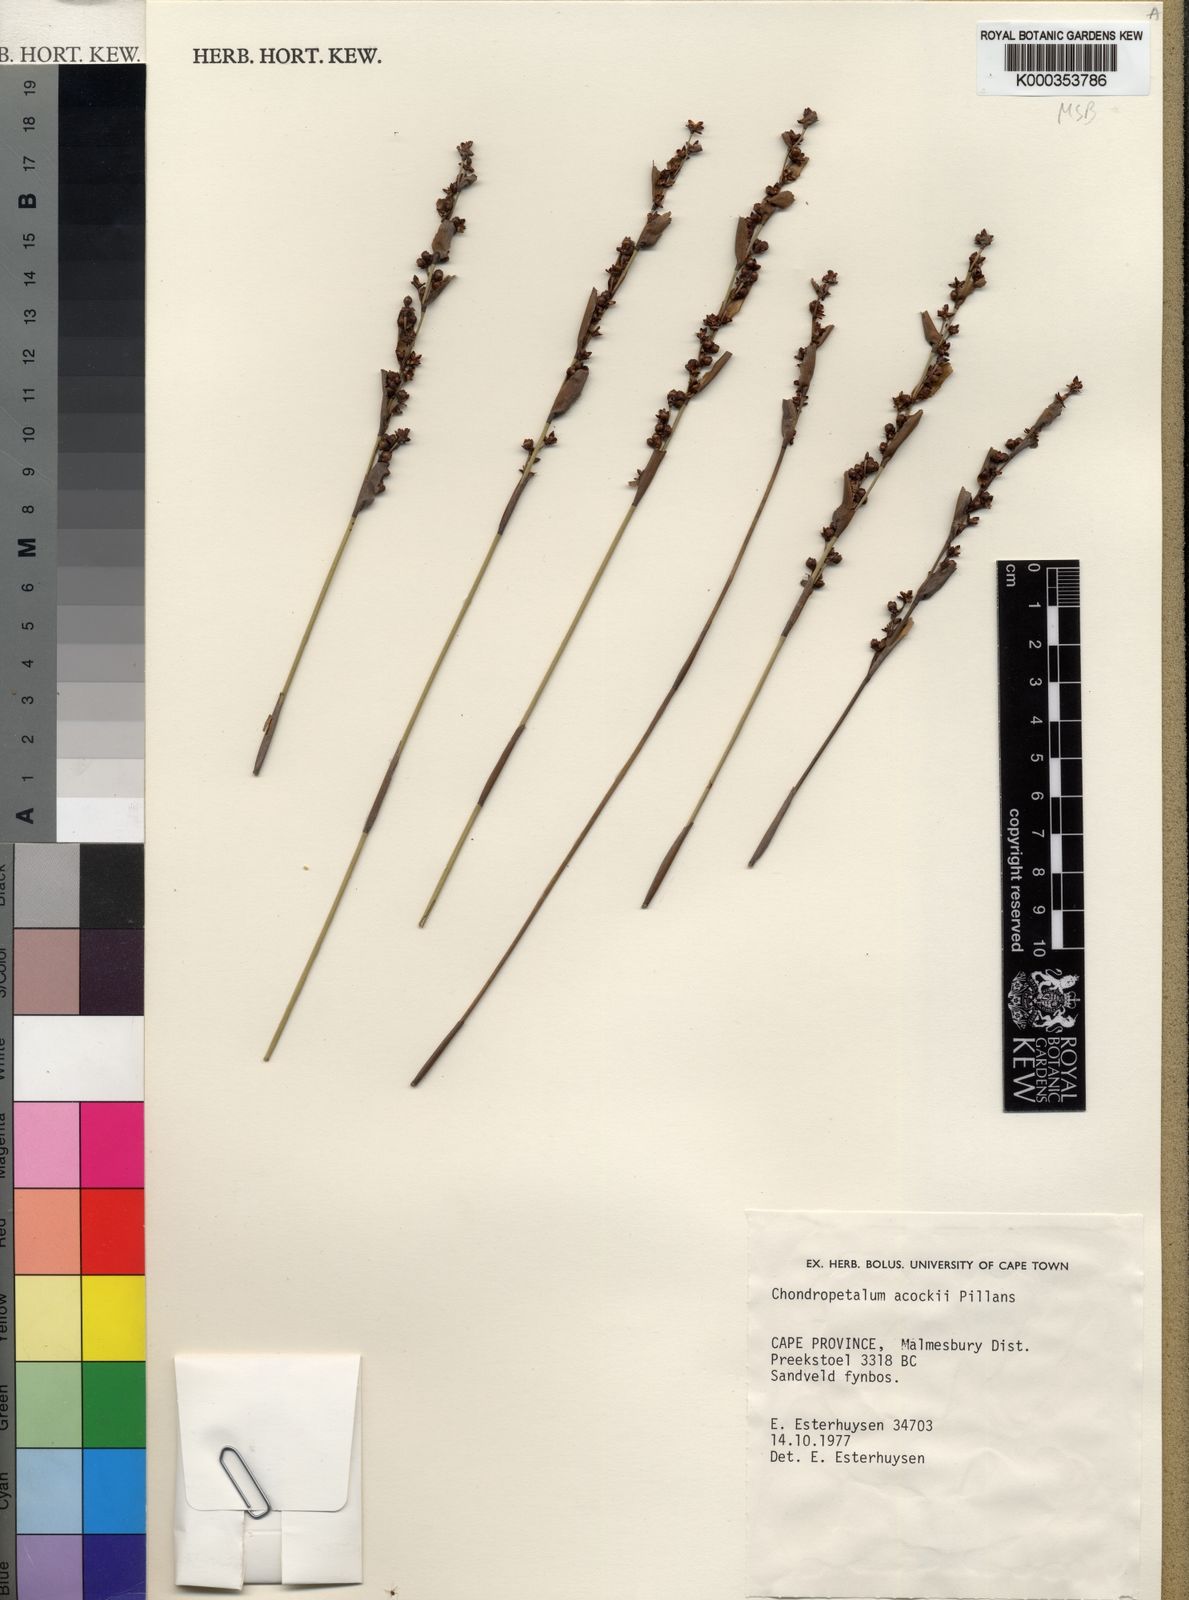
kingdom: Plantae
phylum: Tracheophyta
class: Liliopsida
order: Poales
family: Restionaceae
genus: Elegia
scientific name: Elegia acockii
